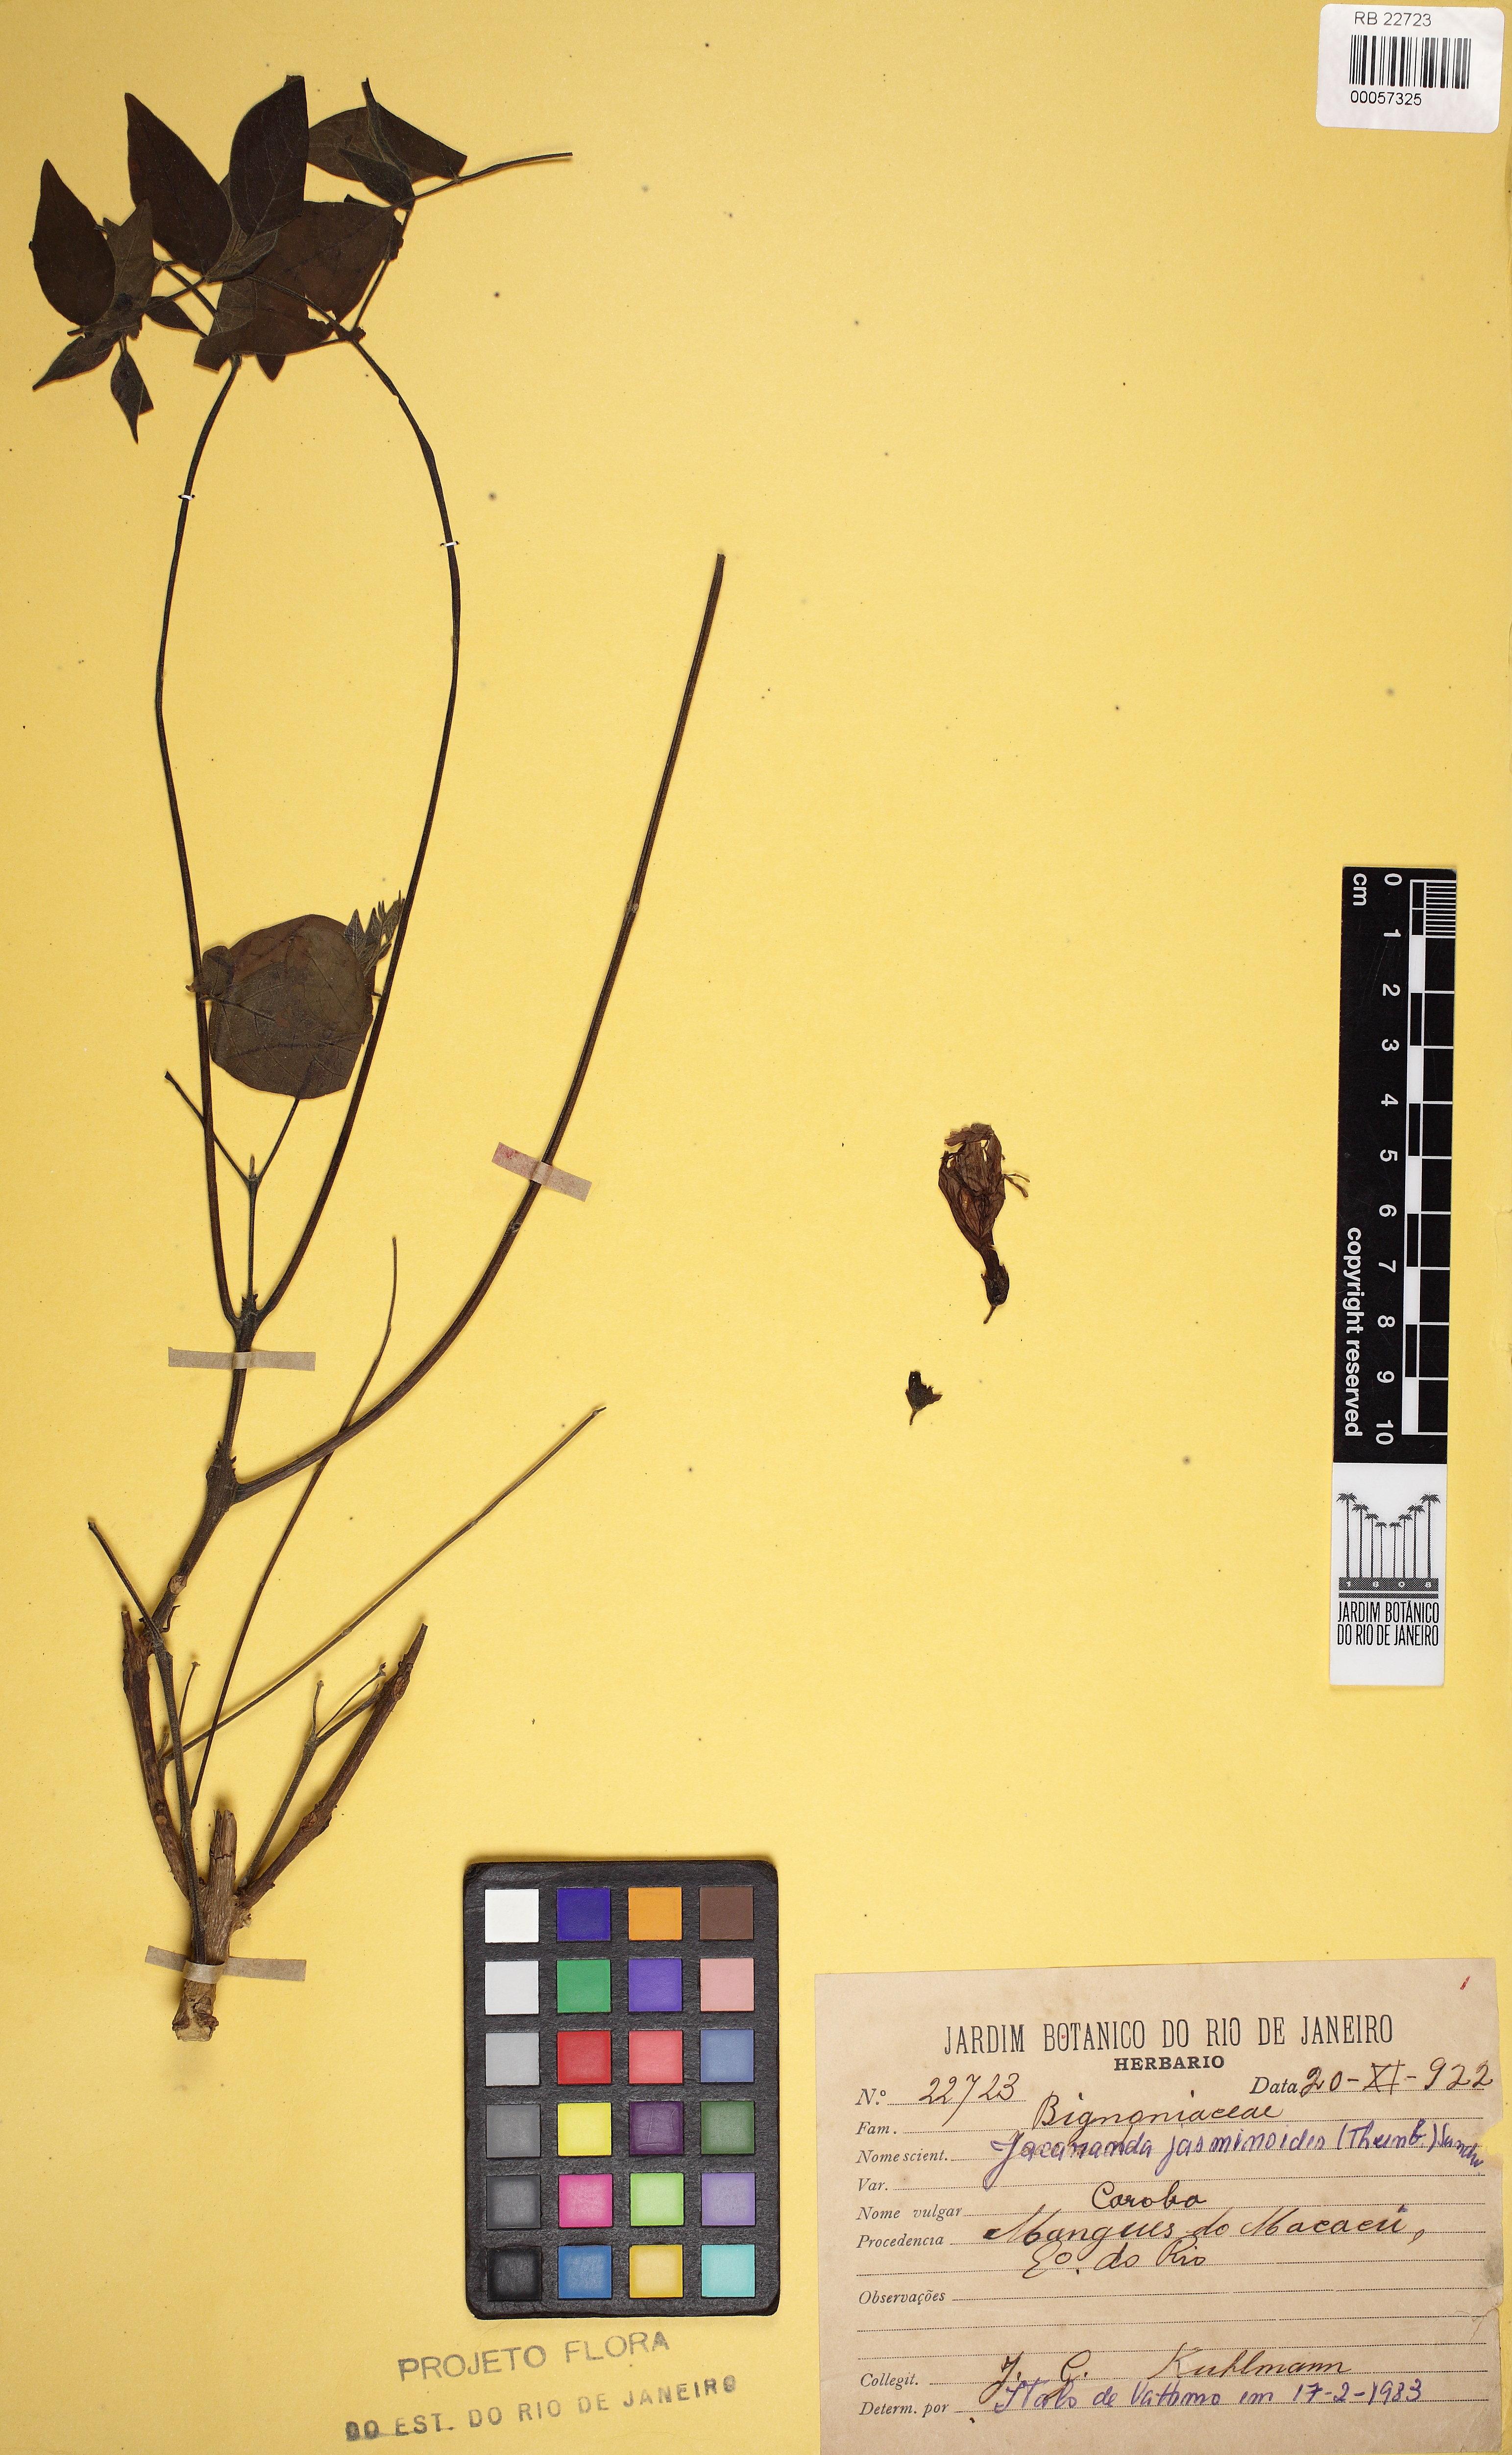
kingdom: Plantae
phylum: Tracheophyta
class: Magnoliopsida
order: Lamiales
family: Bignoniaceae
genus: Jacaranda
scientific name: Jacaranda jasminoides
